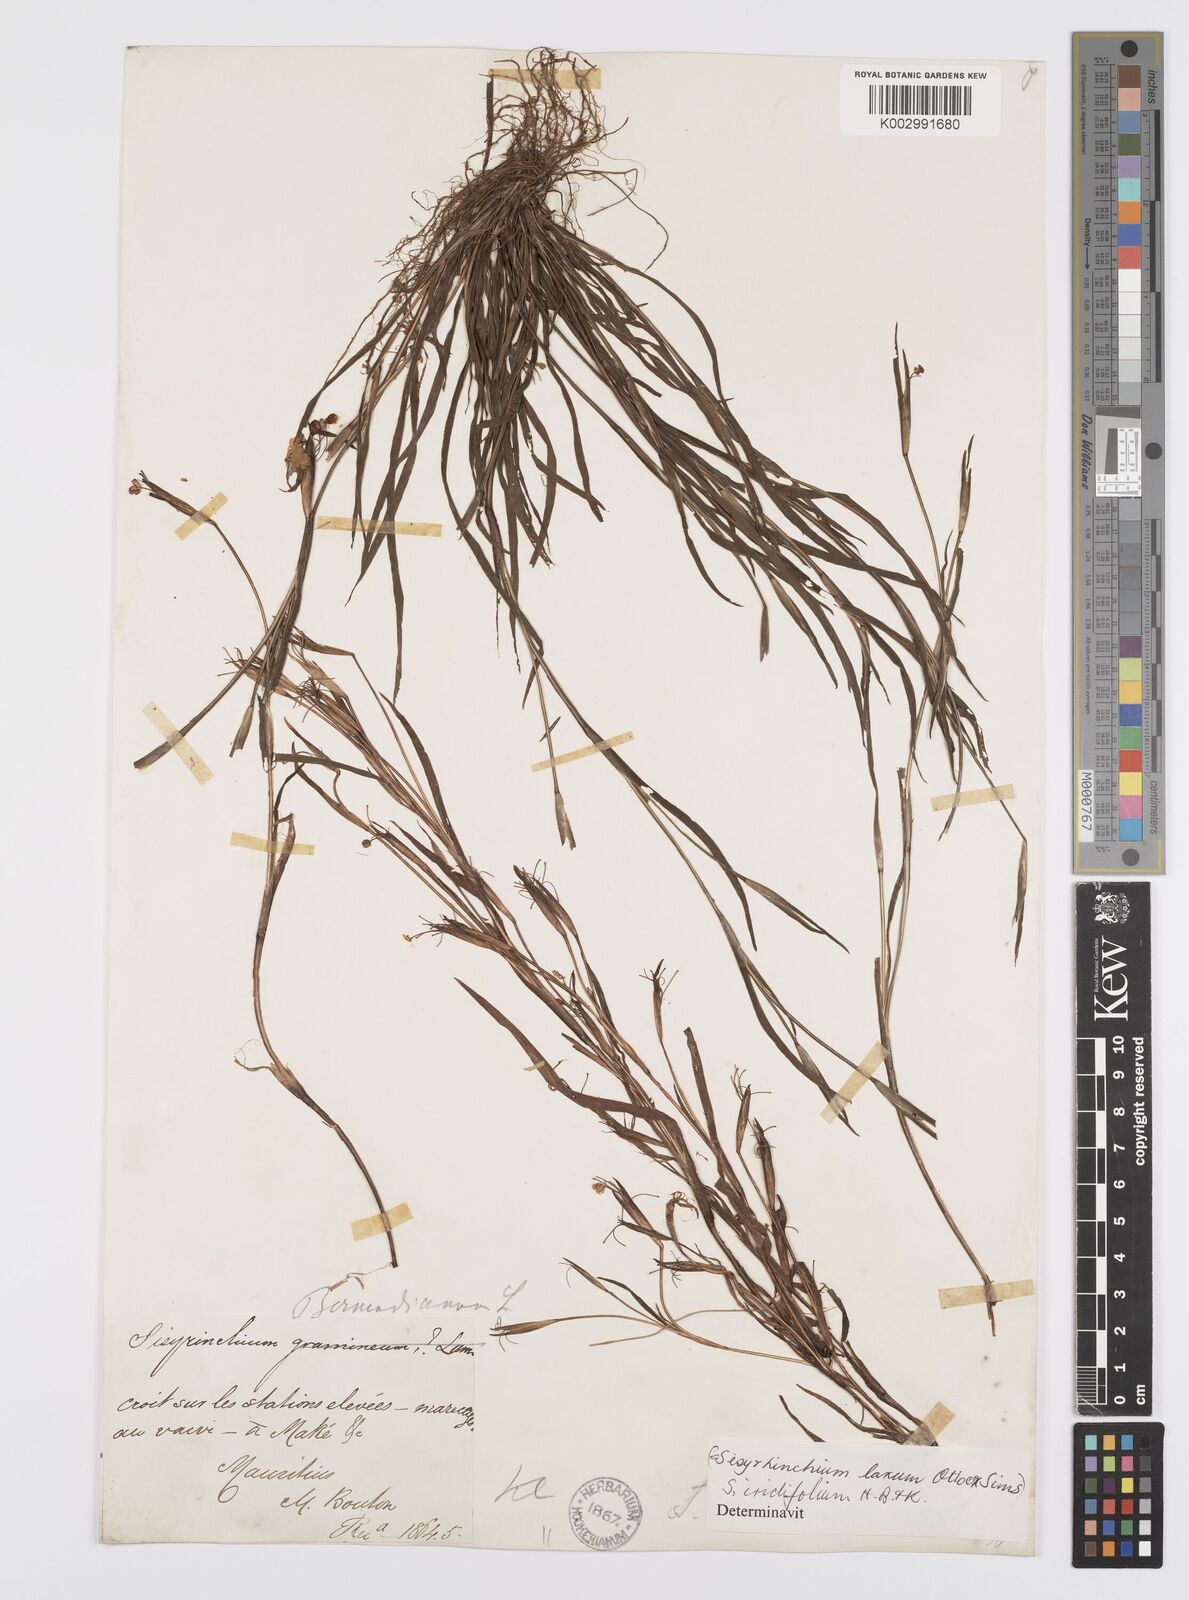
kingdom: Plantae
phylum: Tracheophyta
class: Liliopsida
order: Asparagales
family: Iridaceae
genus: Sisyrinchium
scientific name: Sisyrinchium micranthum
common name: Bermuda pigroot
